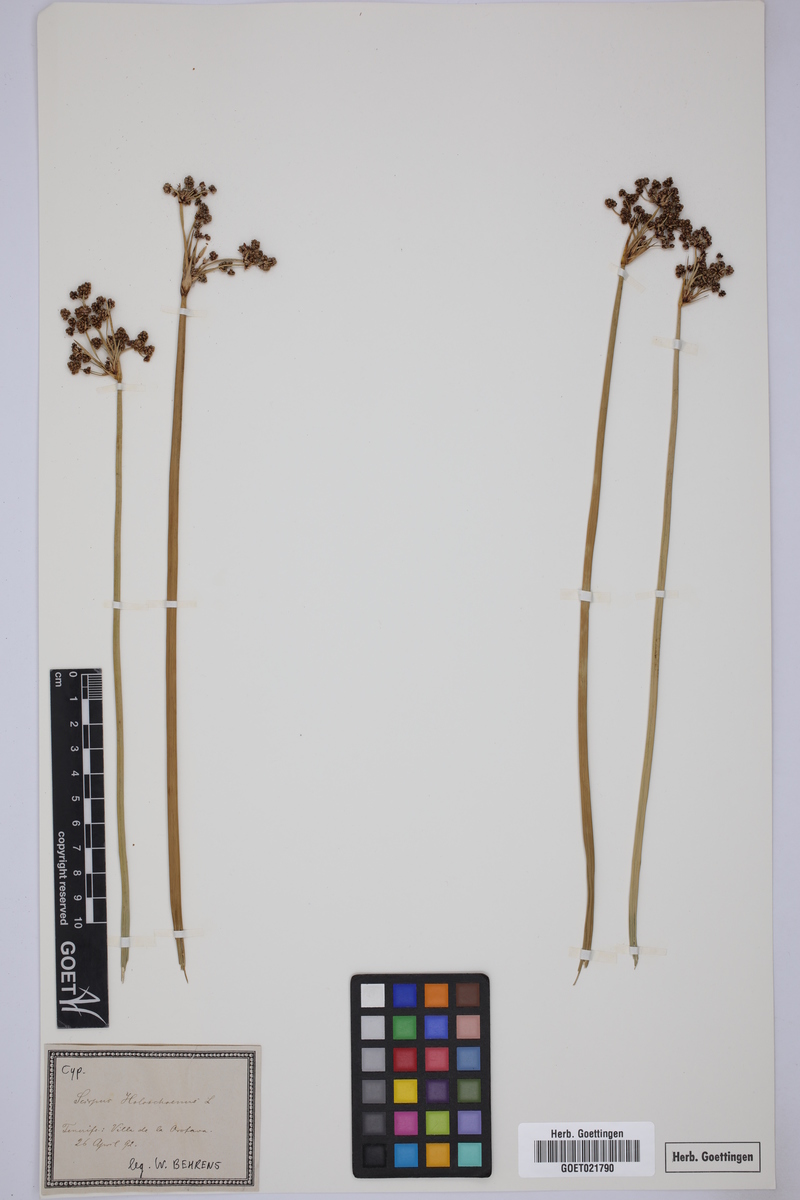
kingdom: Plantae
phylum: Tracheophyta
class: Liliopsida
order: Poales
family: Cyperaceae
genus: Scirpoides
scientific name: Scirpoides holoschoenus
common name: Round-headed club-rush
